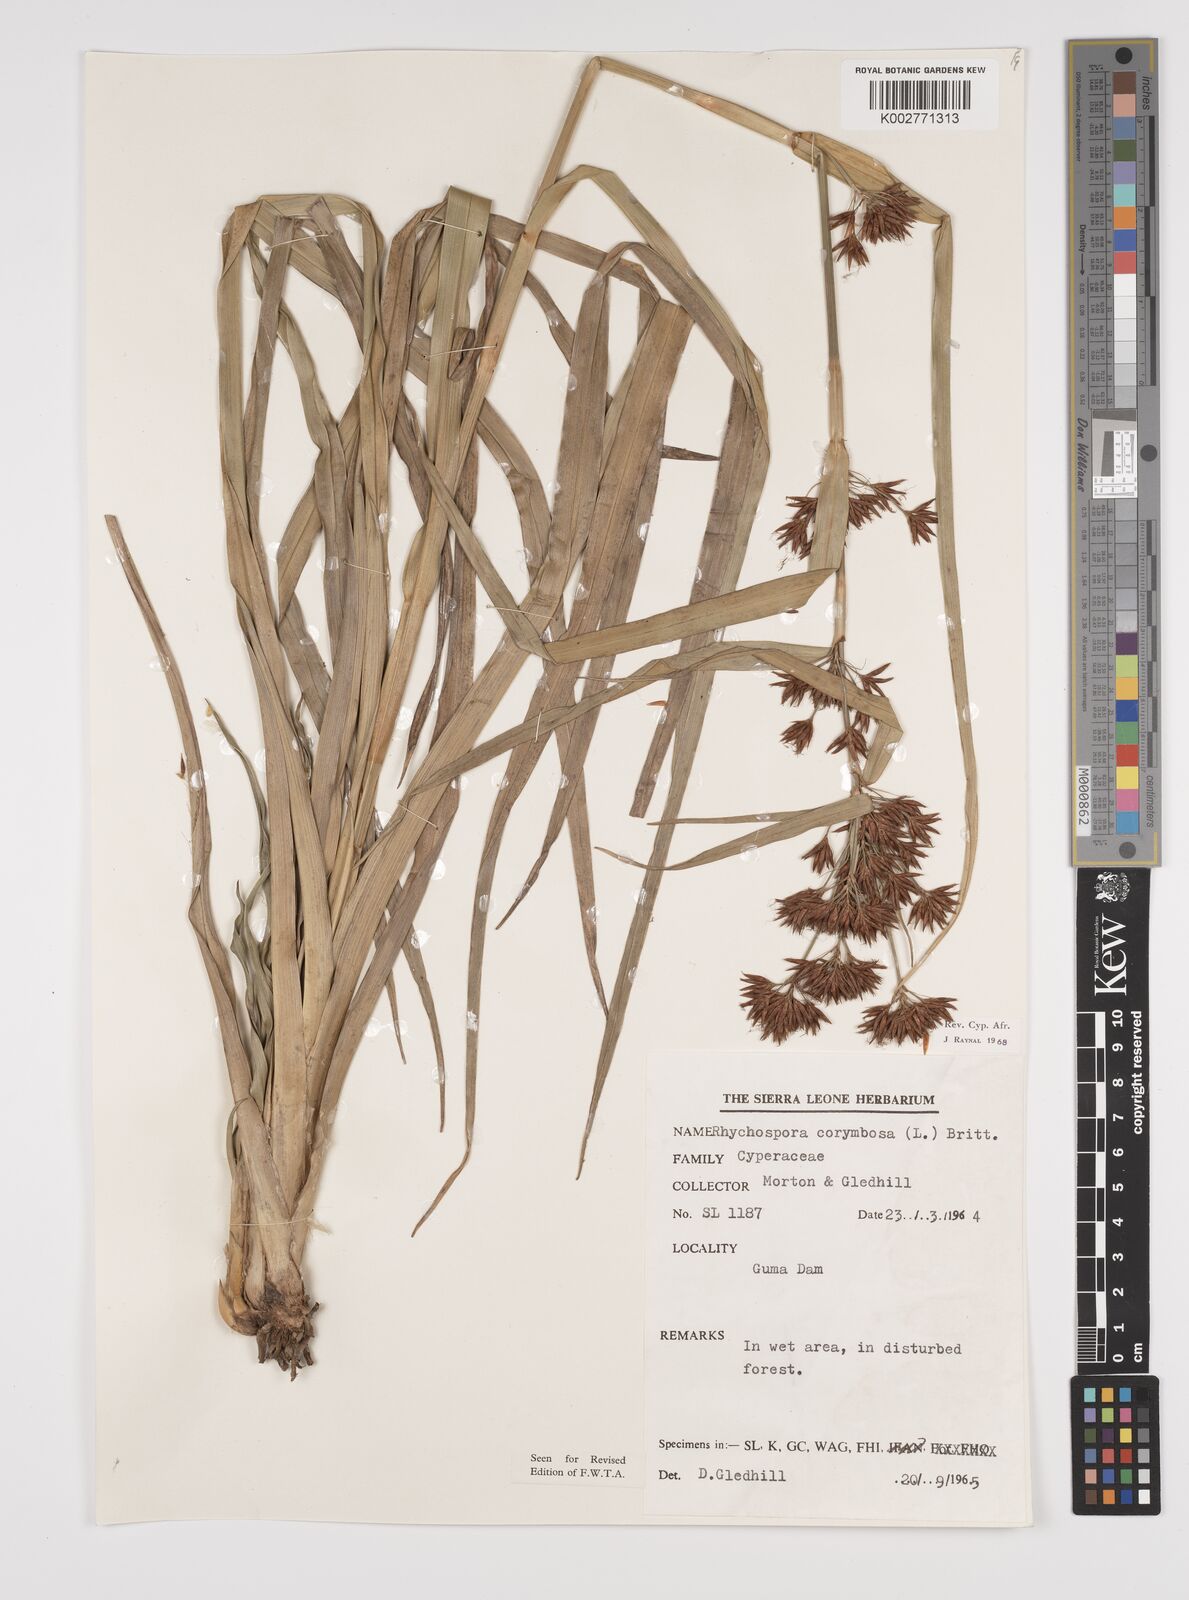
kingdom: Plantae
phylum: Tracheophyta
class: Liliopsida
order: Poales
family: Cyperaceae
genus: Rhynchospora
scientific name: Rhynchospora corymbosa
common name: Golden beak sedge
